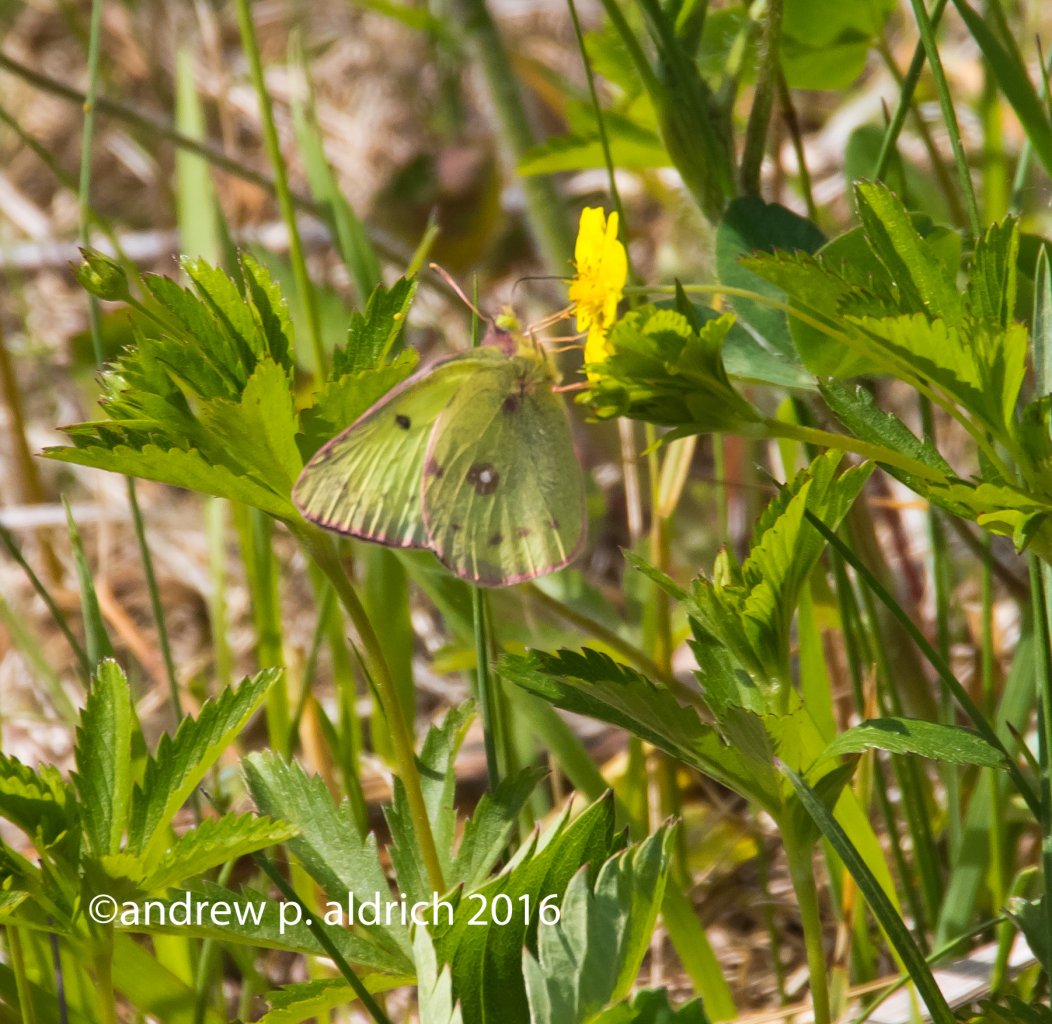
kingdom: Animalia
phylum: Arthropoda
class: Insecta
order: Lepidoptera
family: Pieridae
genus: Colias
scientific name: Colias eurytheme
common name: Orange Sulphur
